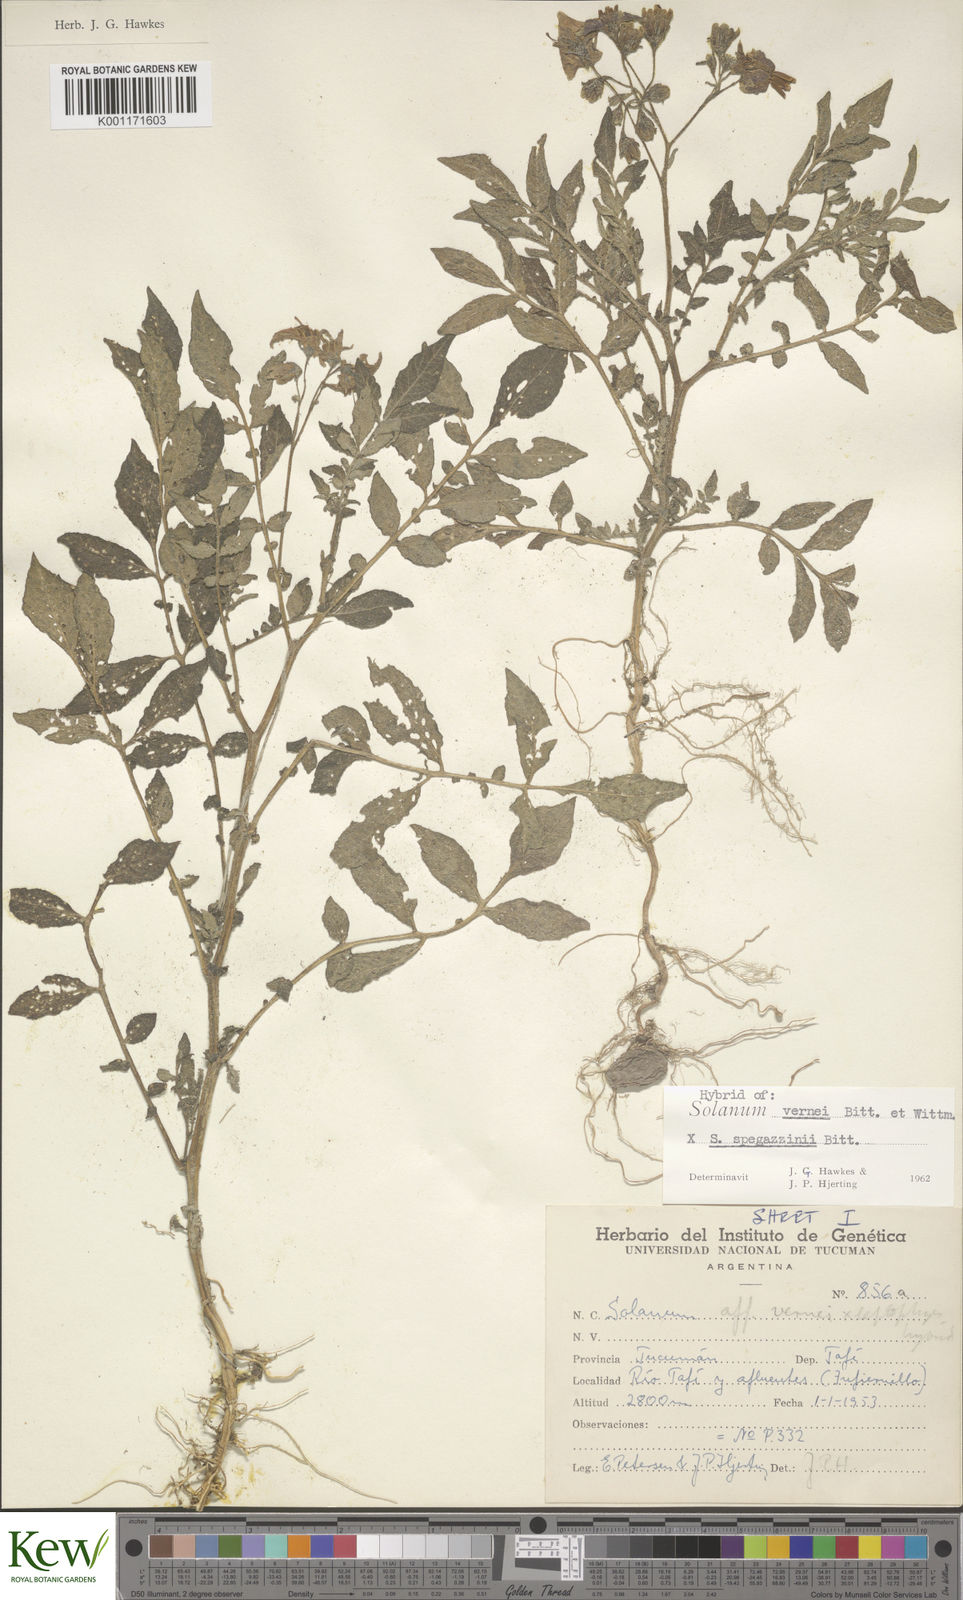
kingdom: Plantae
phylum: Tracheophyta
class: Magnoliopsida
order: Solanales
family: Solanaceae
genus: Solanum
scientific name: Solanum vernei
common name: Purple potato
